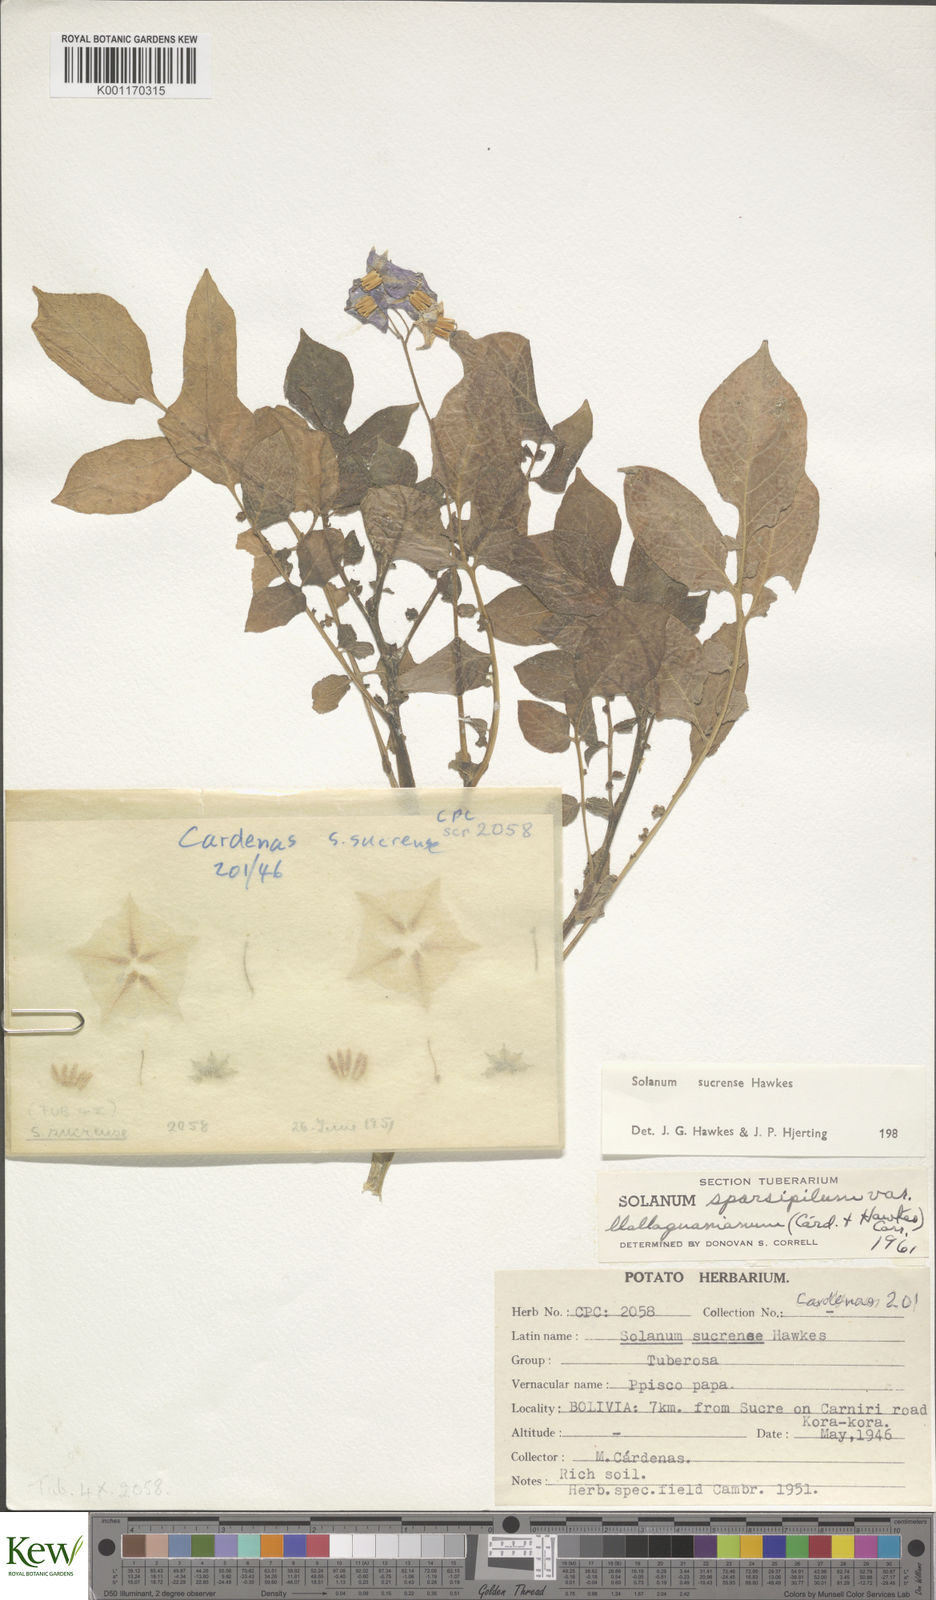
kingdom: Plantae
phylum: Tracheophyta
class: Magnoliopsida
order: Solanales
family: Solanaceae
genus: Solanum
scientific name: Solanum brevicaule
